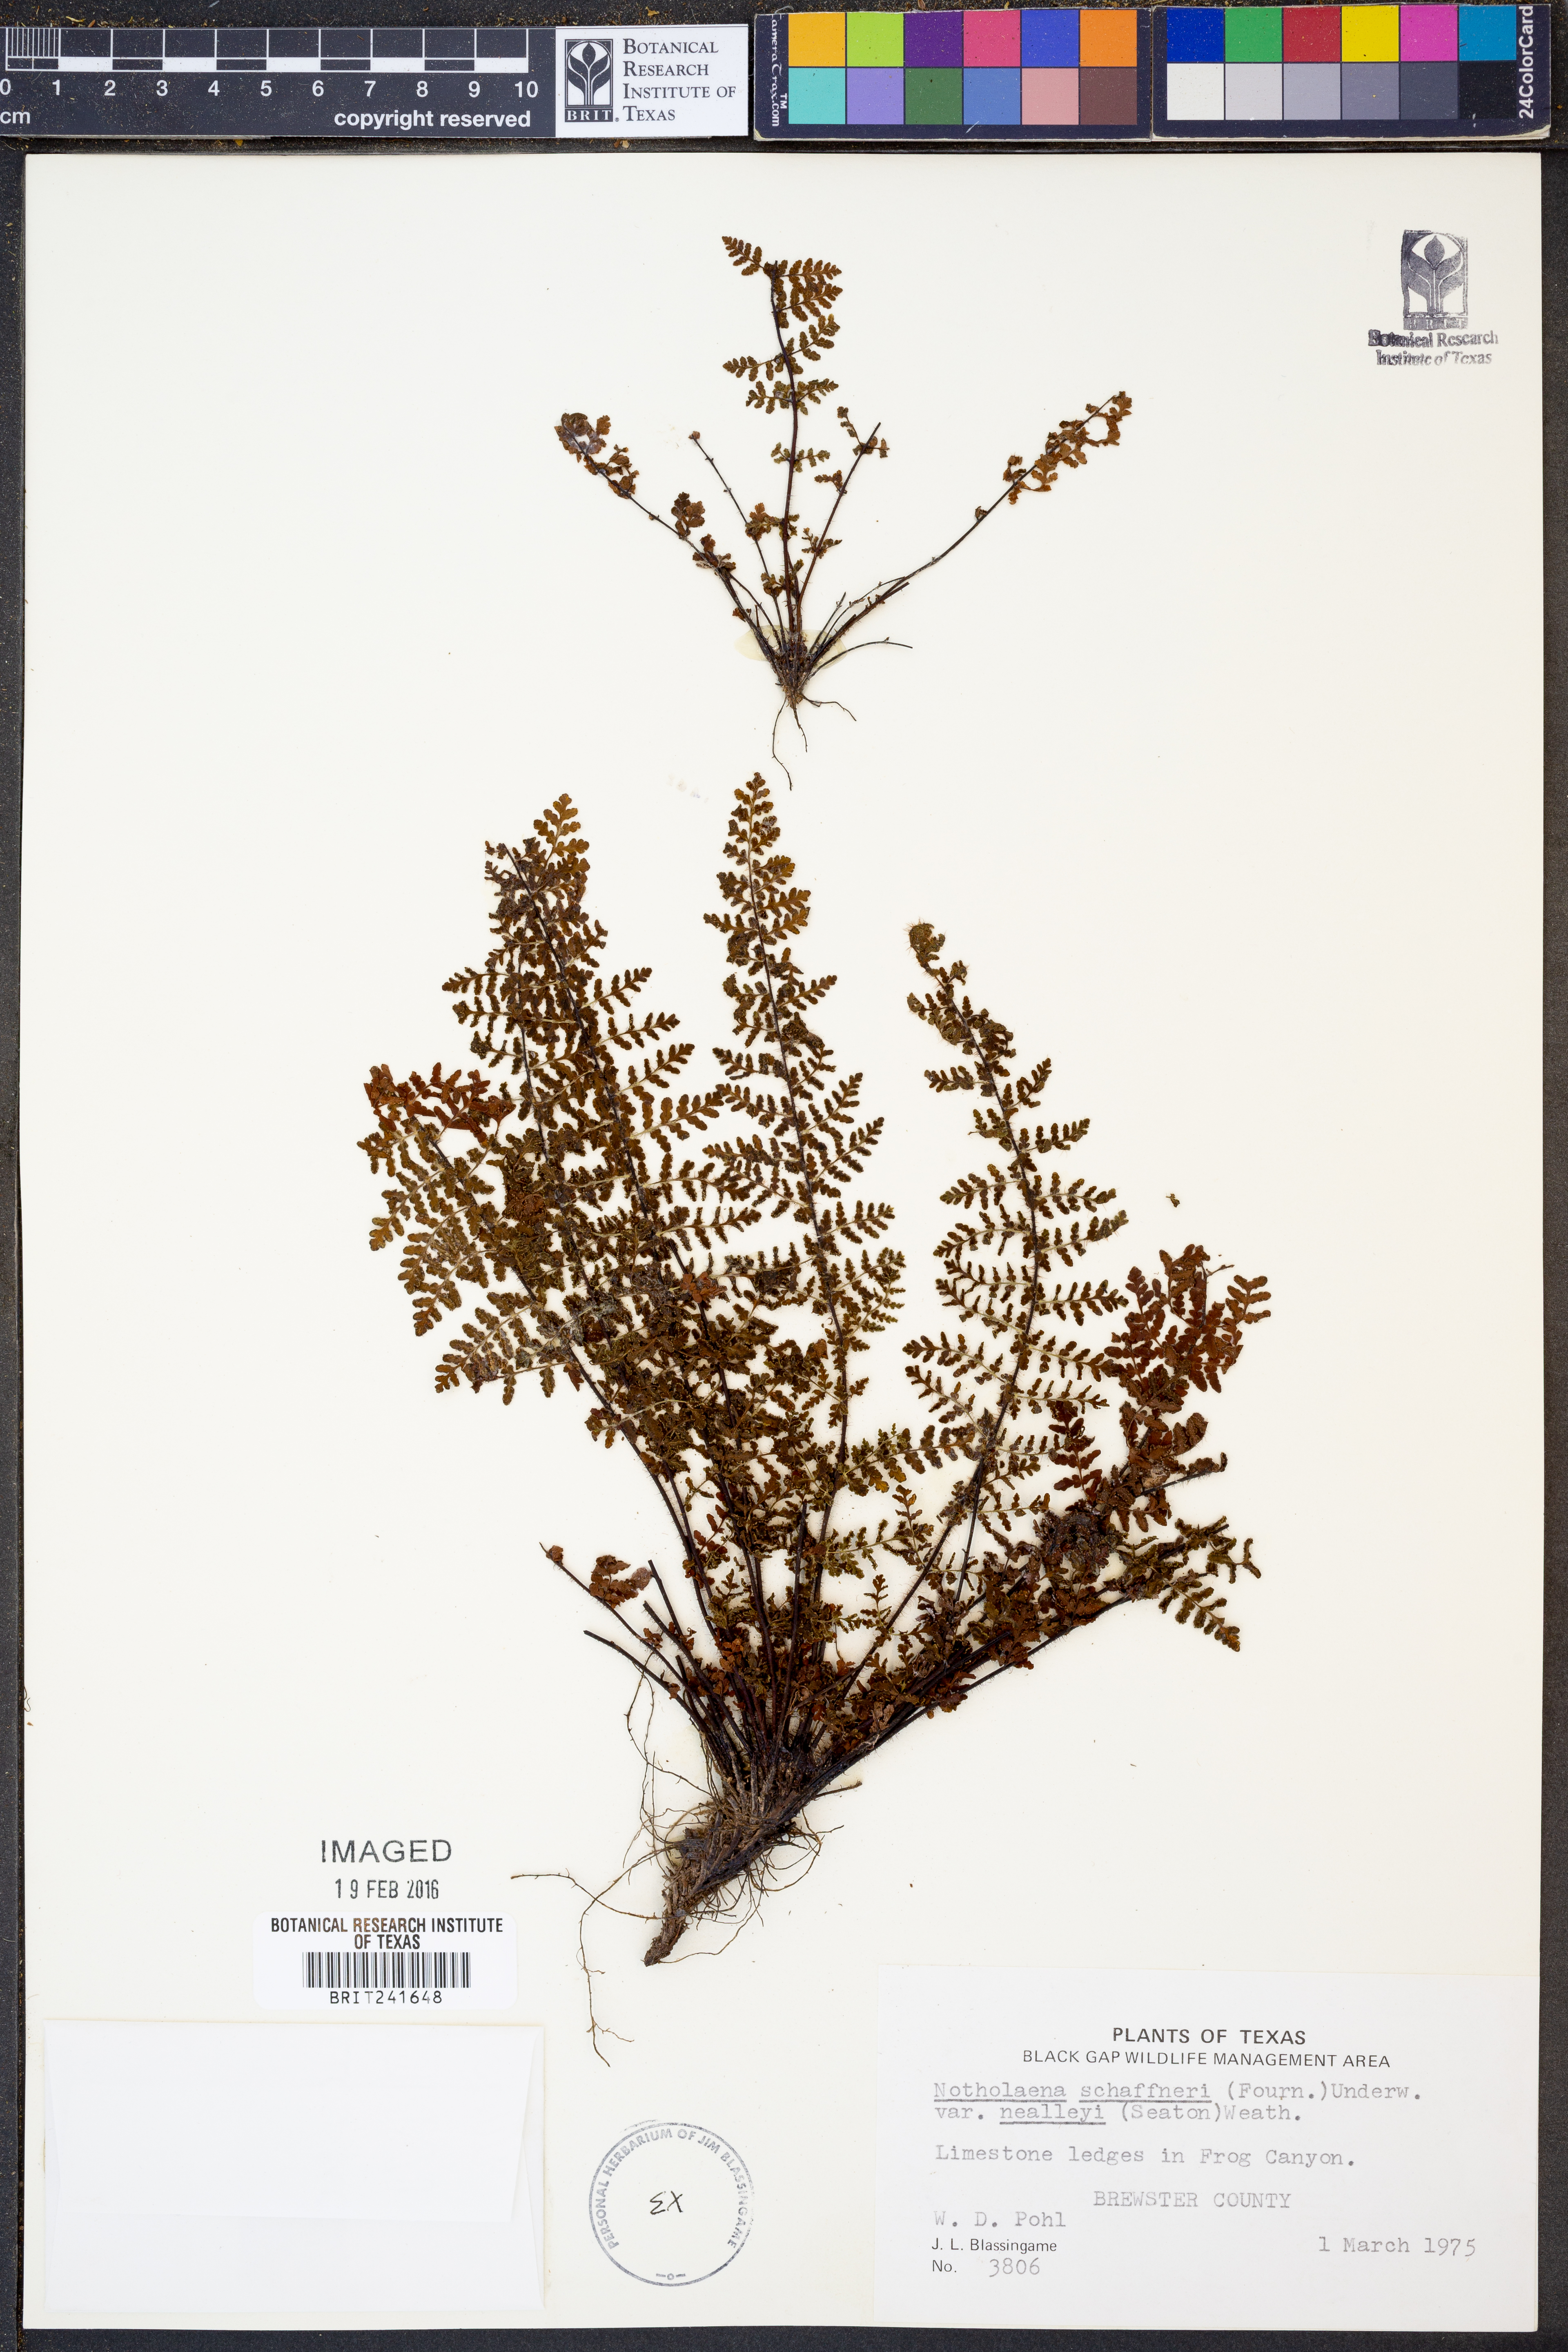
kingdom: Plantae
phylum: Tracheophyta
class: Polypodiopsida
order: Polypodiales
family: Pteridaceae
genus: Notholaena
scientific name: Notholaena schaffneri
